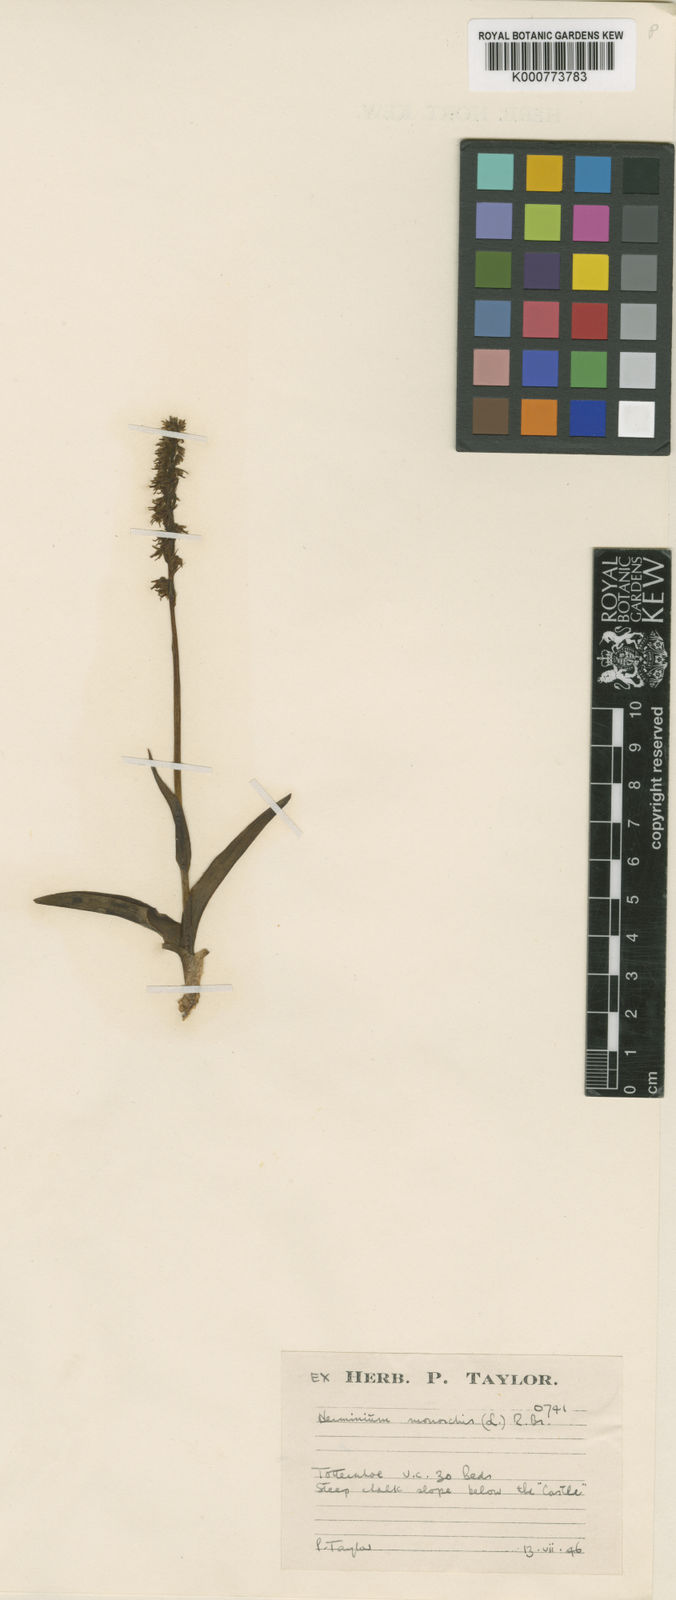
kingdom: Plantae
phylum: Tracheophyta
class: Liliopsida
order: Asparagales
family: Orchidaceae
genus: Herminium
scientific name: Herminium monorchis
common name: Musk orchid
